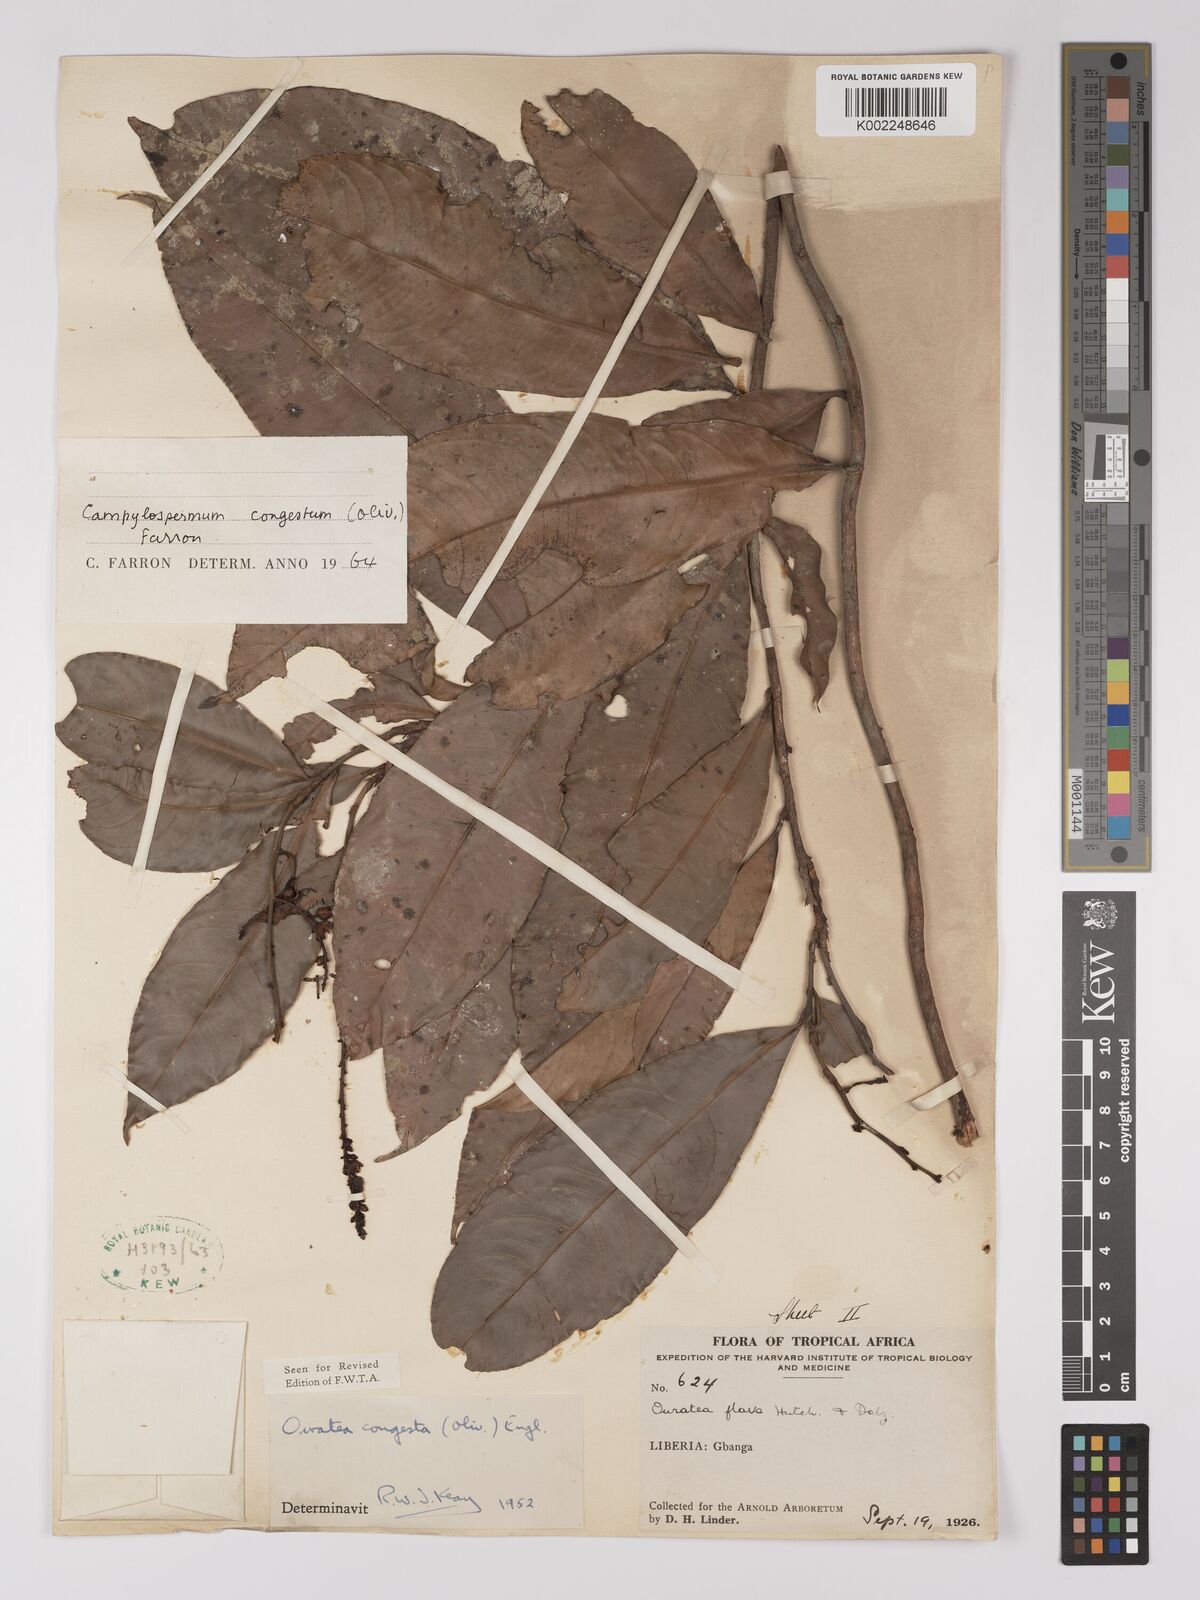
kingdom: Plantae
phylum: Tracheophyta
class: Magnoliopsida
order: Malpighiales
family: Ochnaceae
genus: Campylospermum
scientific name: Campylospermum congestum
